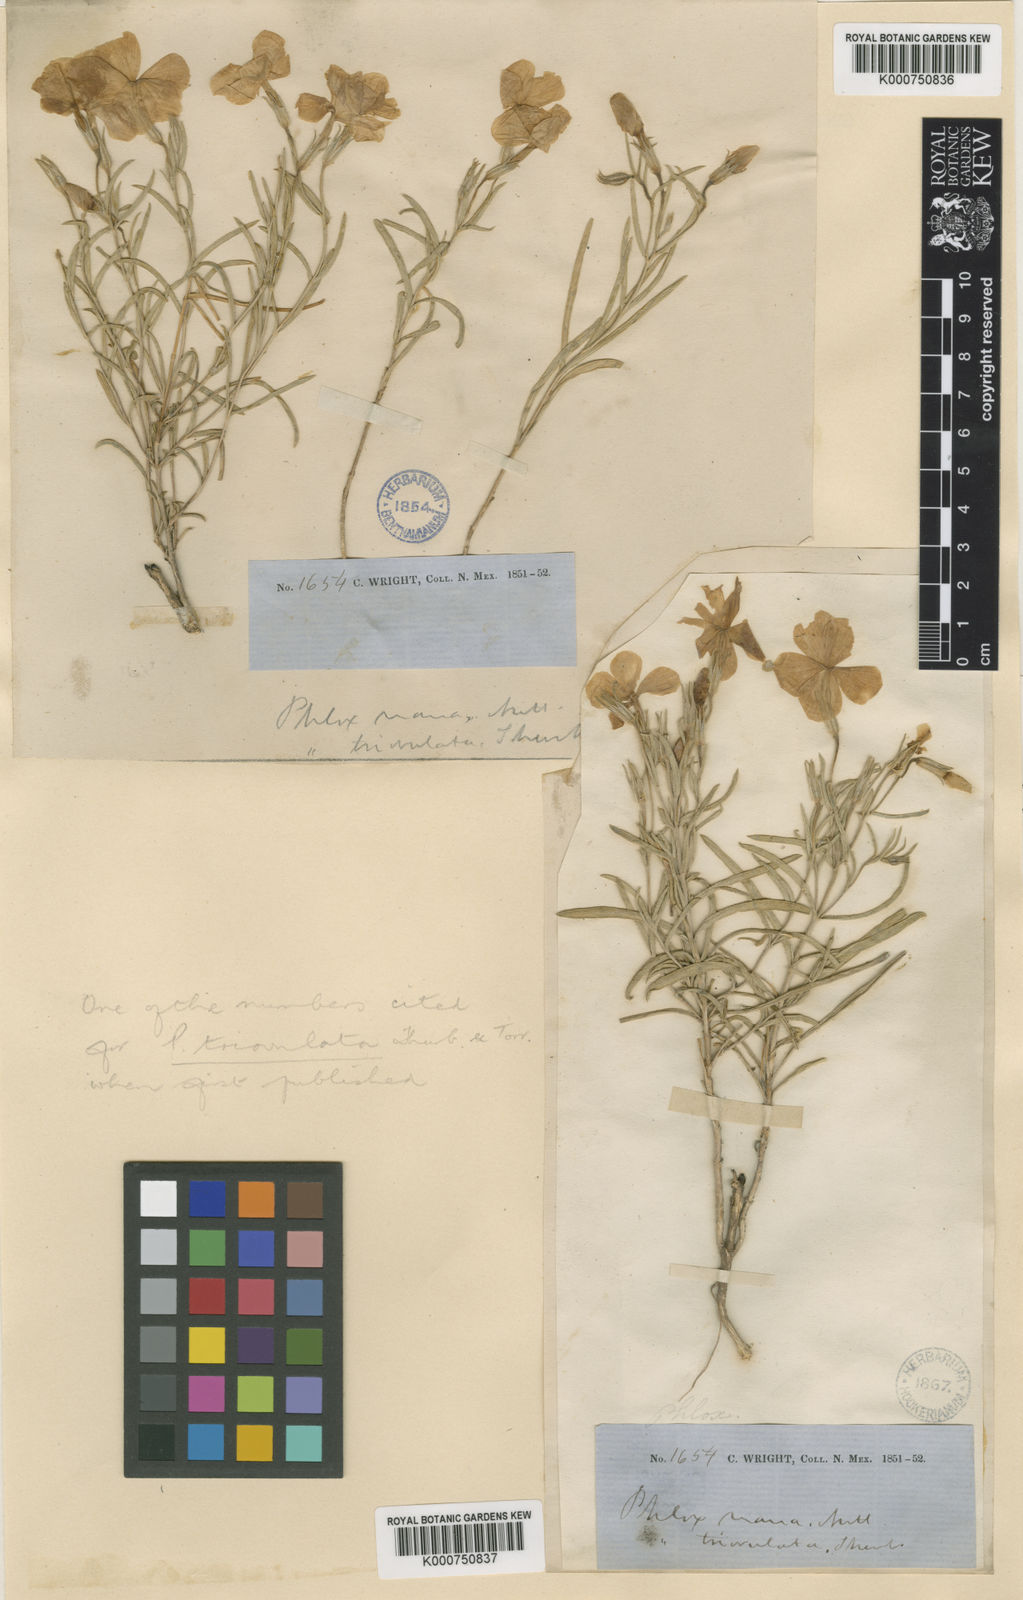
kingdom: Plantae
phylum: Tracheophyta
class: Magnoliopsida
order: Ericales
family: Polemoniaceae
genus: Phlox
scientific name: Phlox triovulata
